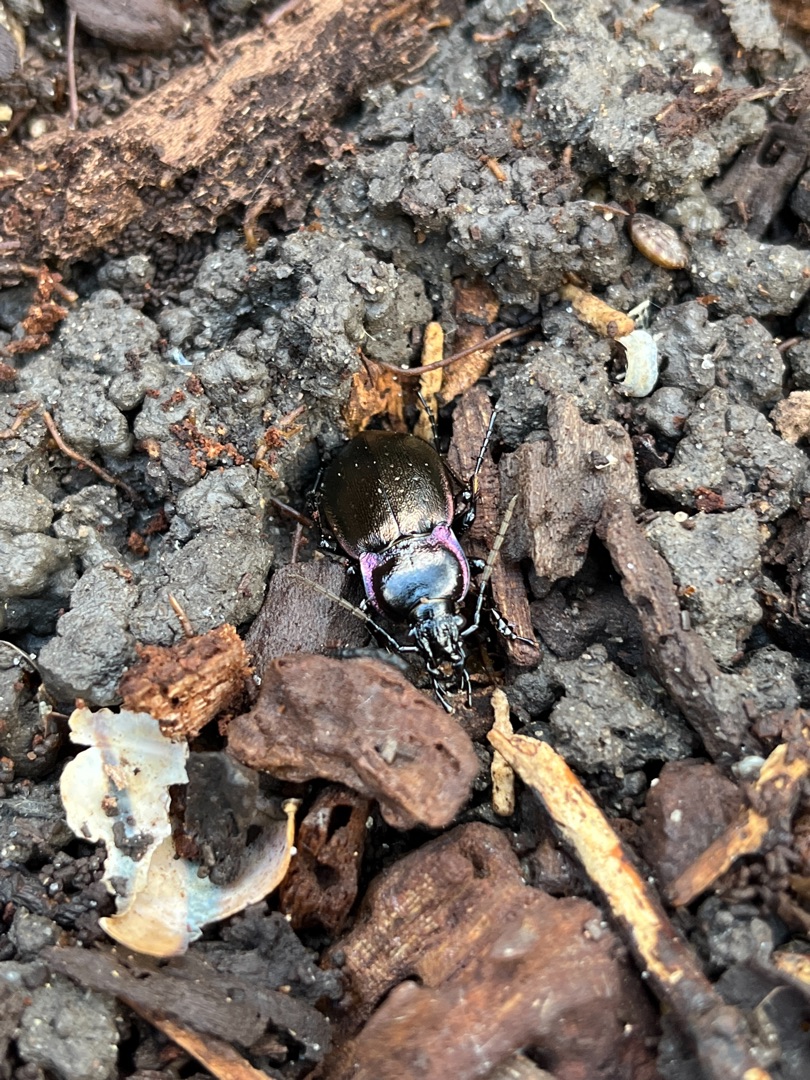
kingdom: Animalia
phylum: Arthropoda
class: Insecta
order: Coleoptera
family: Carabidae
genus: Carabus
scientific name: Carabus nemoralis
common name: Kratløber
